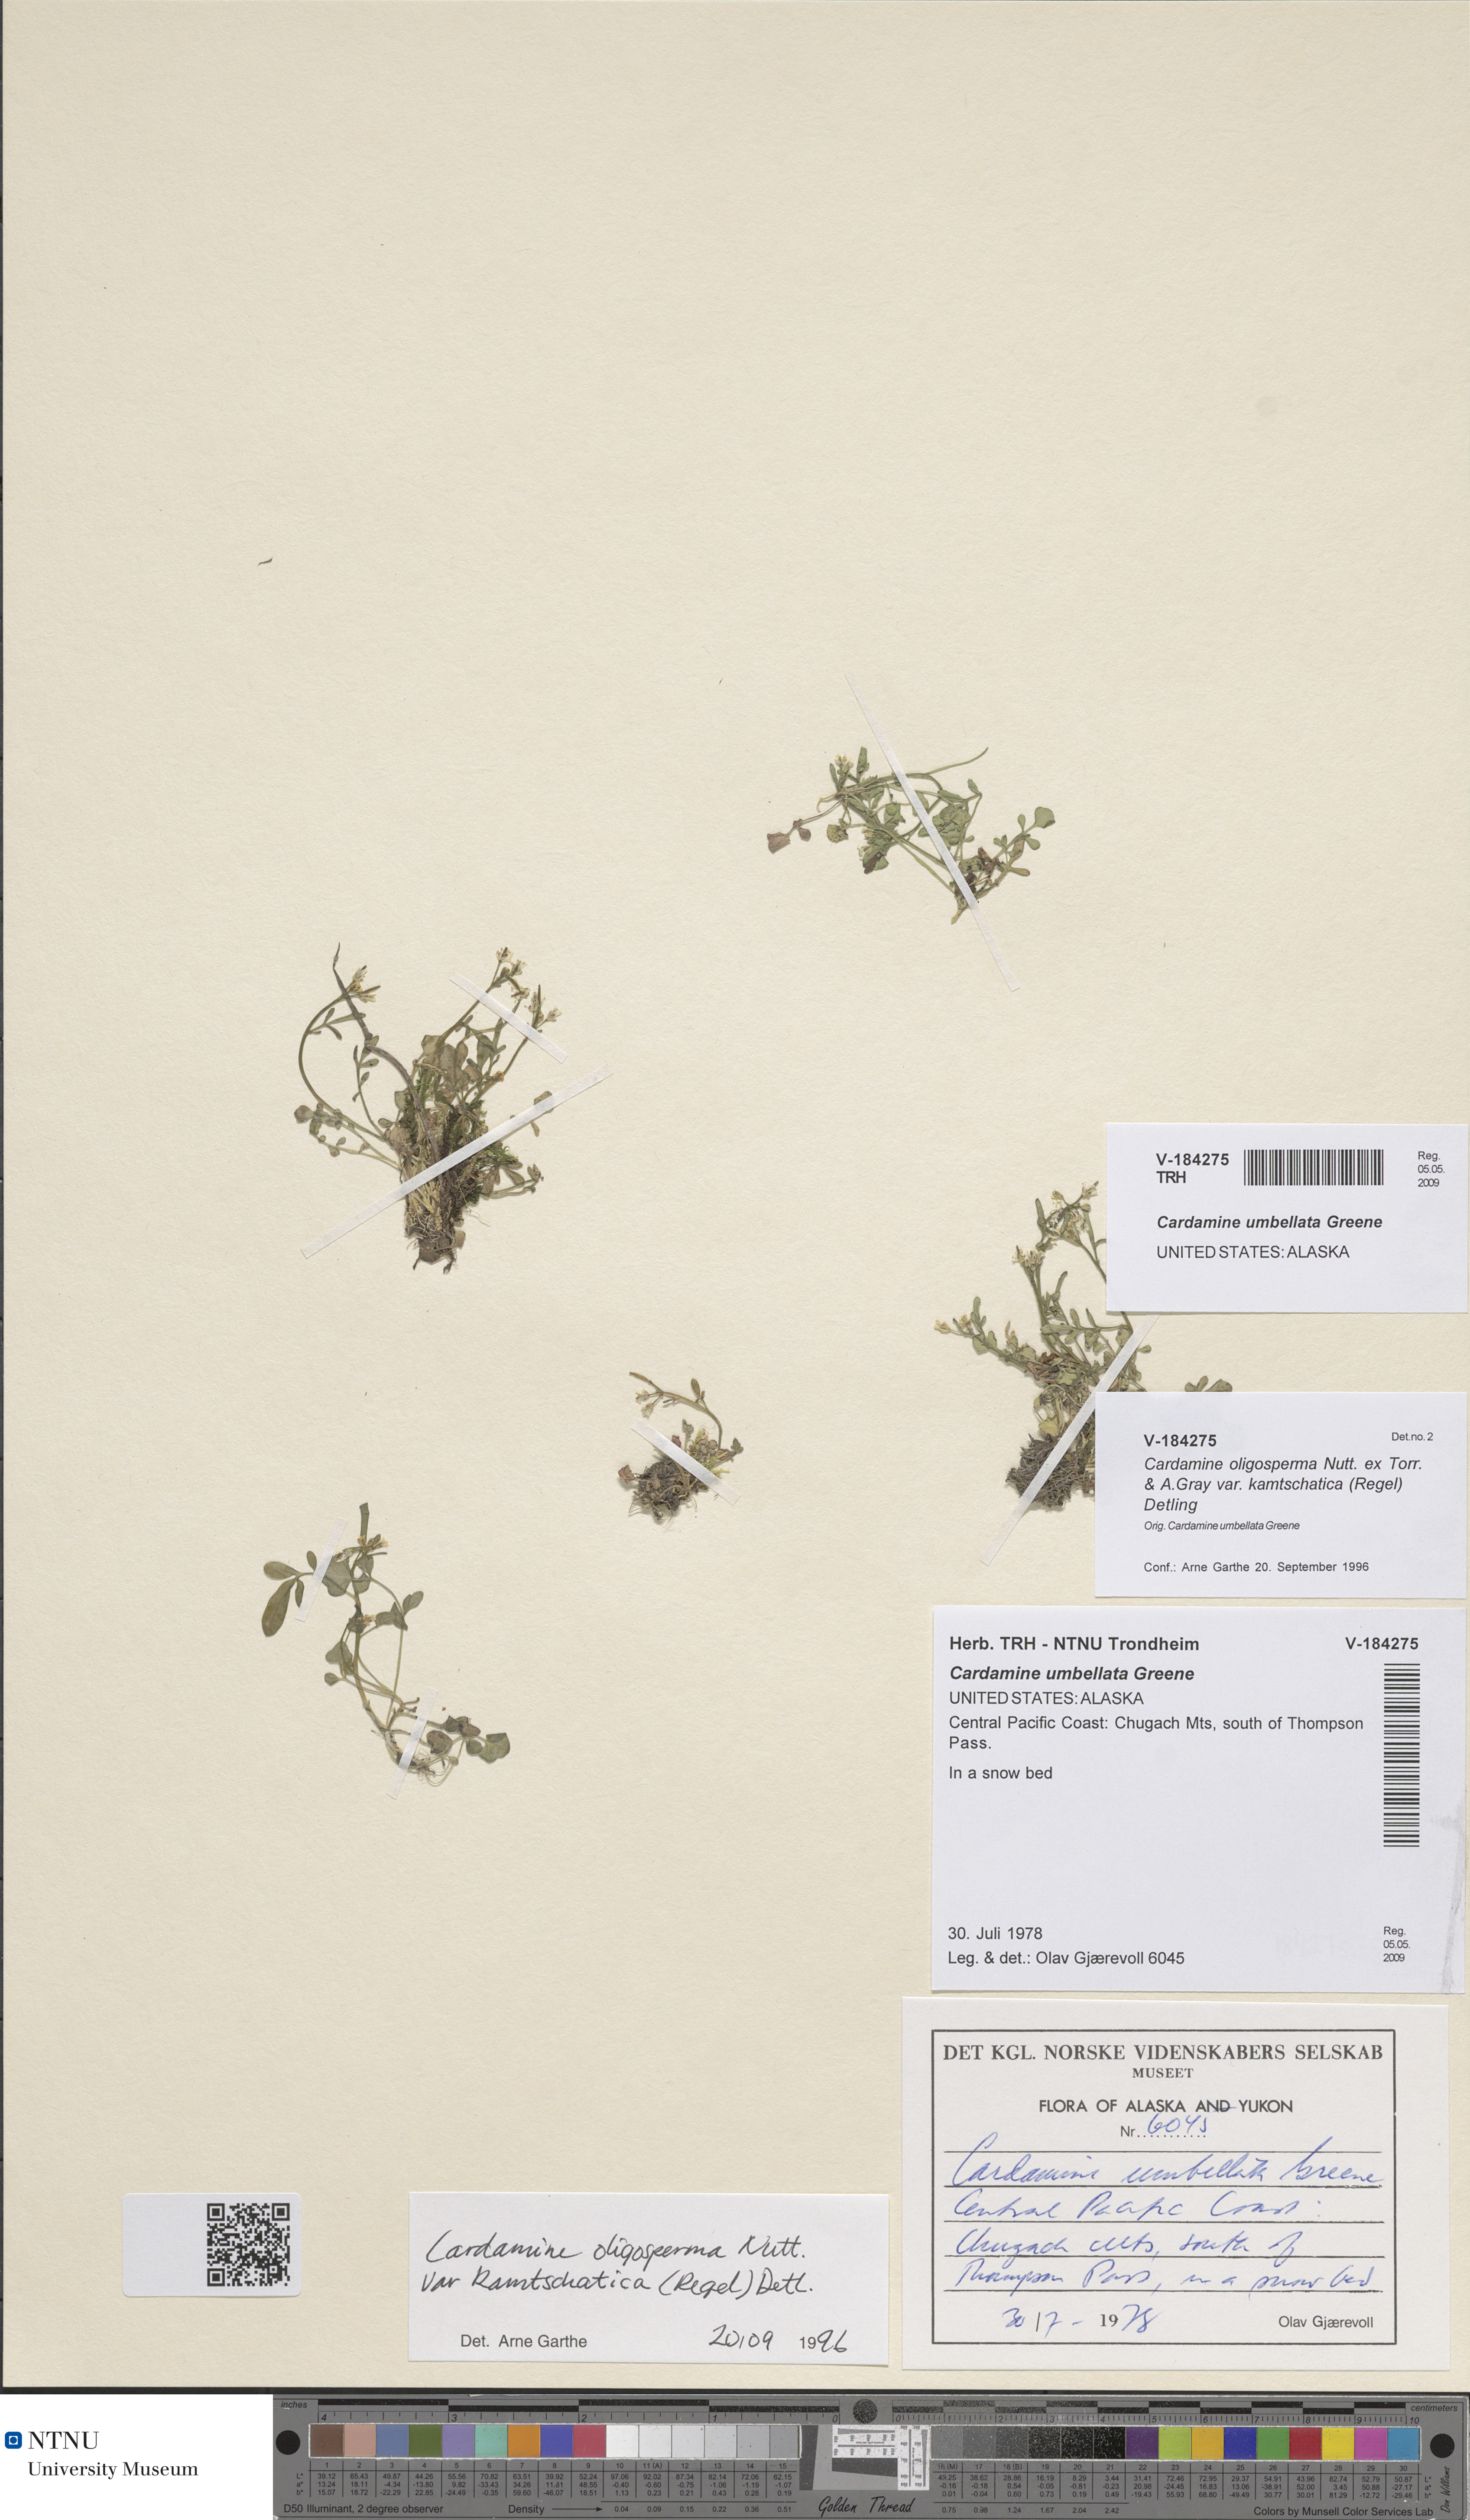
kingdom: Plantae
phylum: Tracheophyta
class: Magnoliopsida
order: Brassicales
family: Brassicaceae
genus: Cardamine
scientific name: Cardamine umbellata
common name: Siberian bittercress
